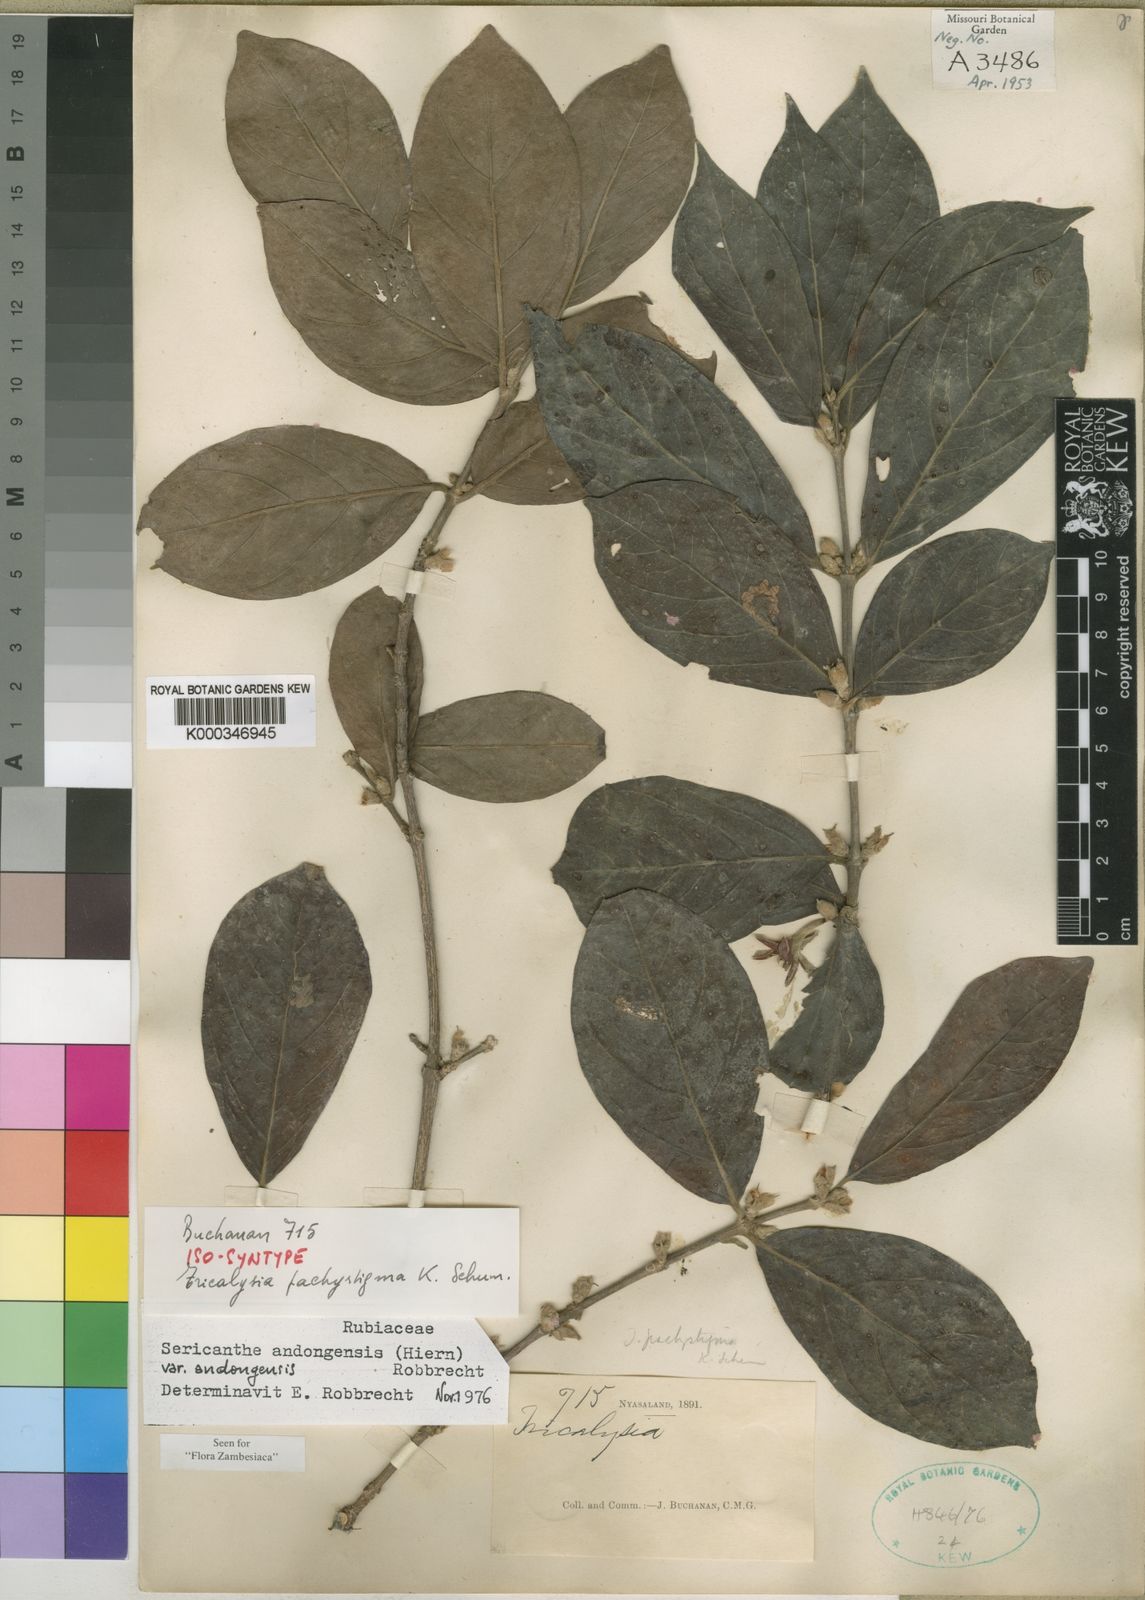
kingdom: Plantae
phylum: Tracheophyta
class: Magnoliopsida
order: Gentianales
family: Rubiaceae
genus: Sericanthe
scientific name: Sericanthe andongensis
